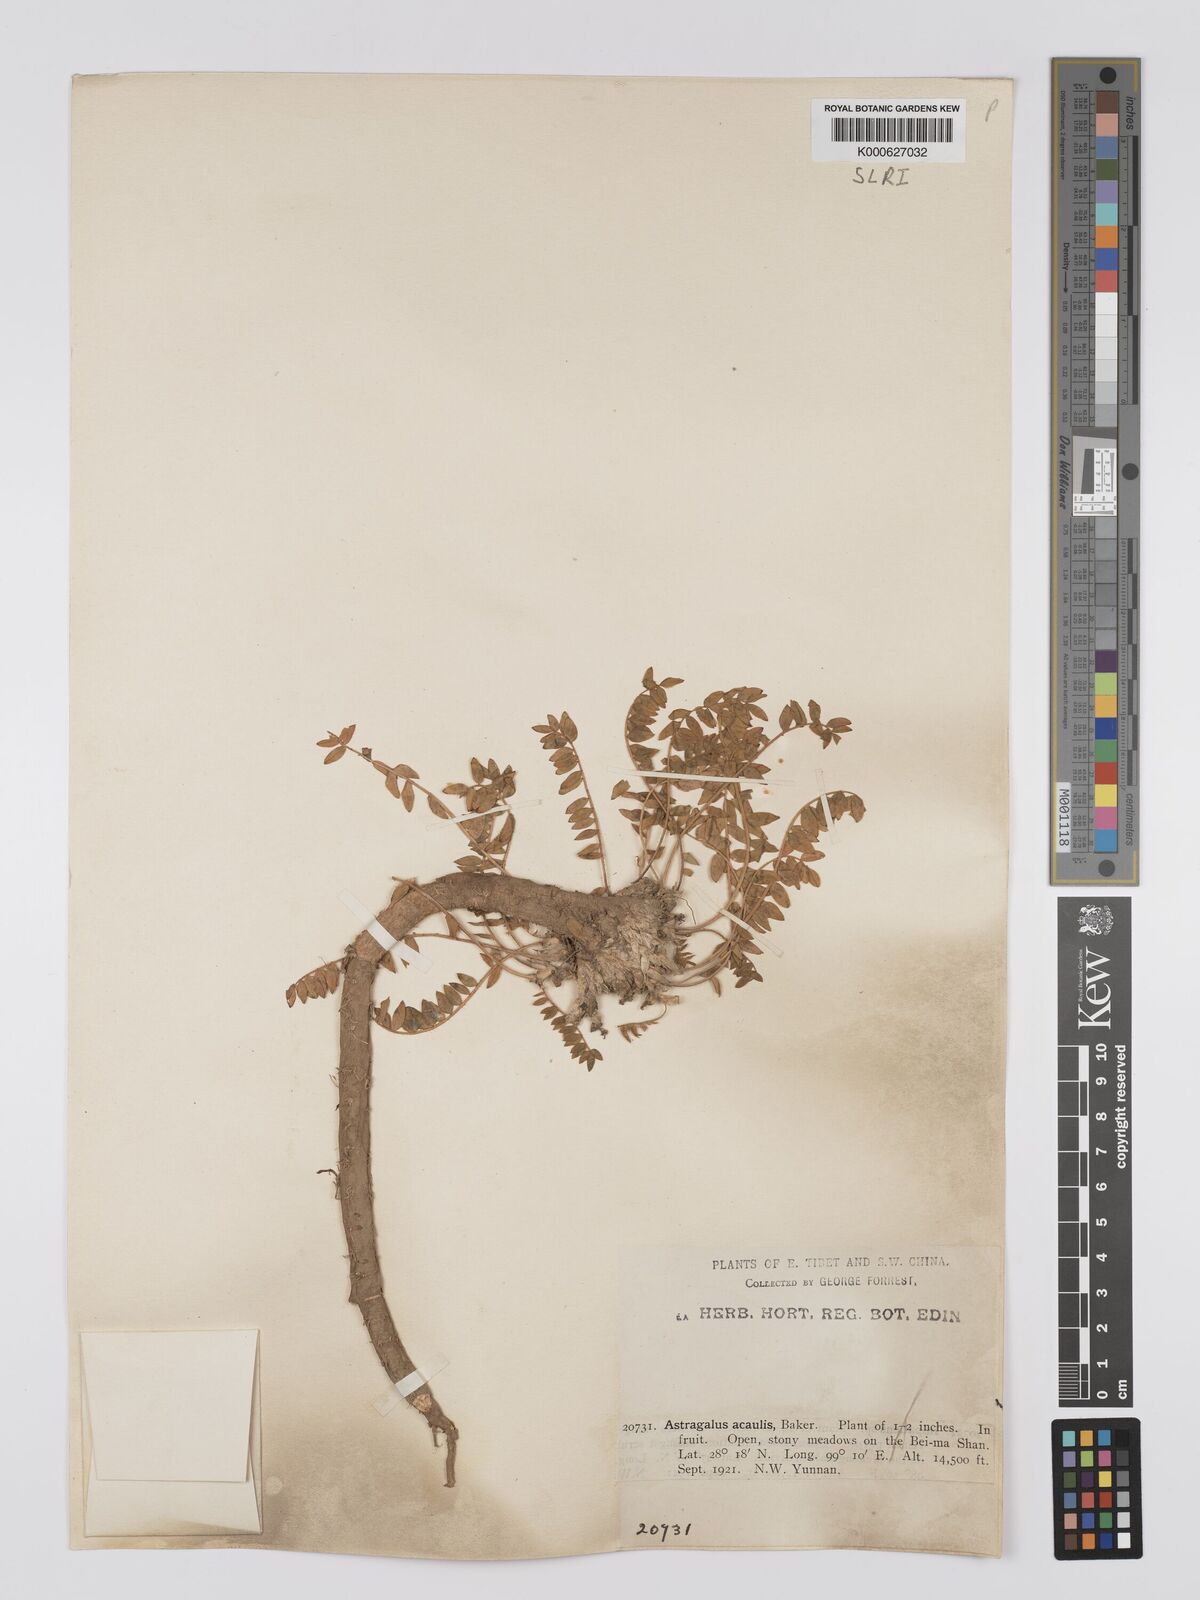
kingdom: Plantae
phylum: Tracheophyta
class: Magnoliopsida
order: Fabales
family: Fabaceae
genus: Astragalus
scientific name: Astragalus acaulis
